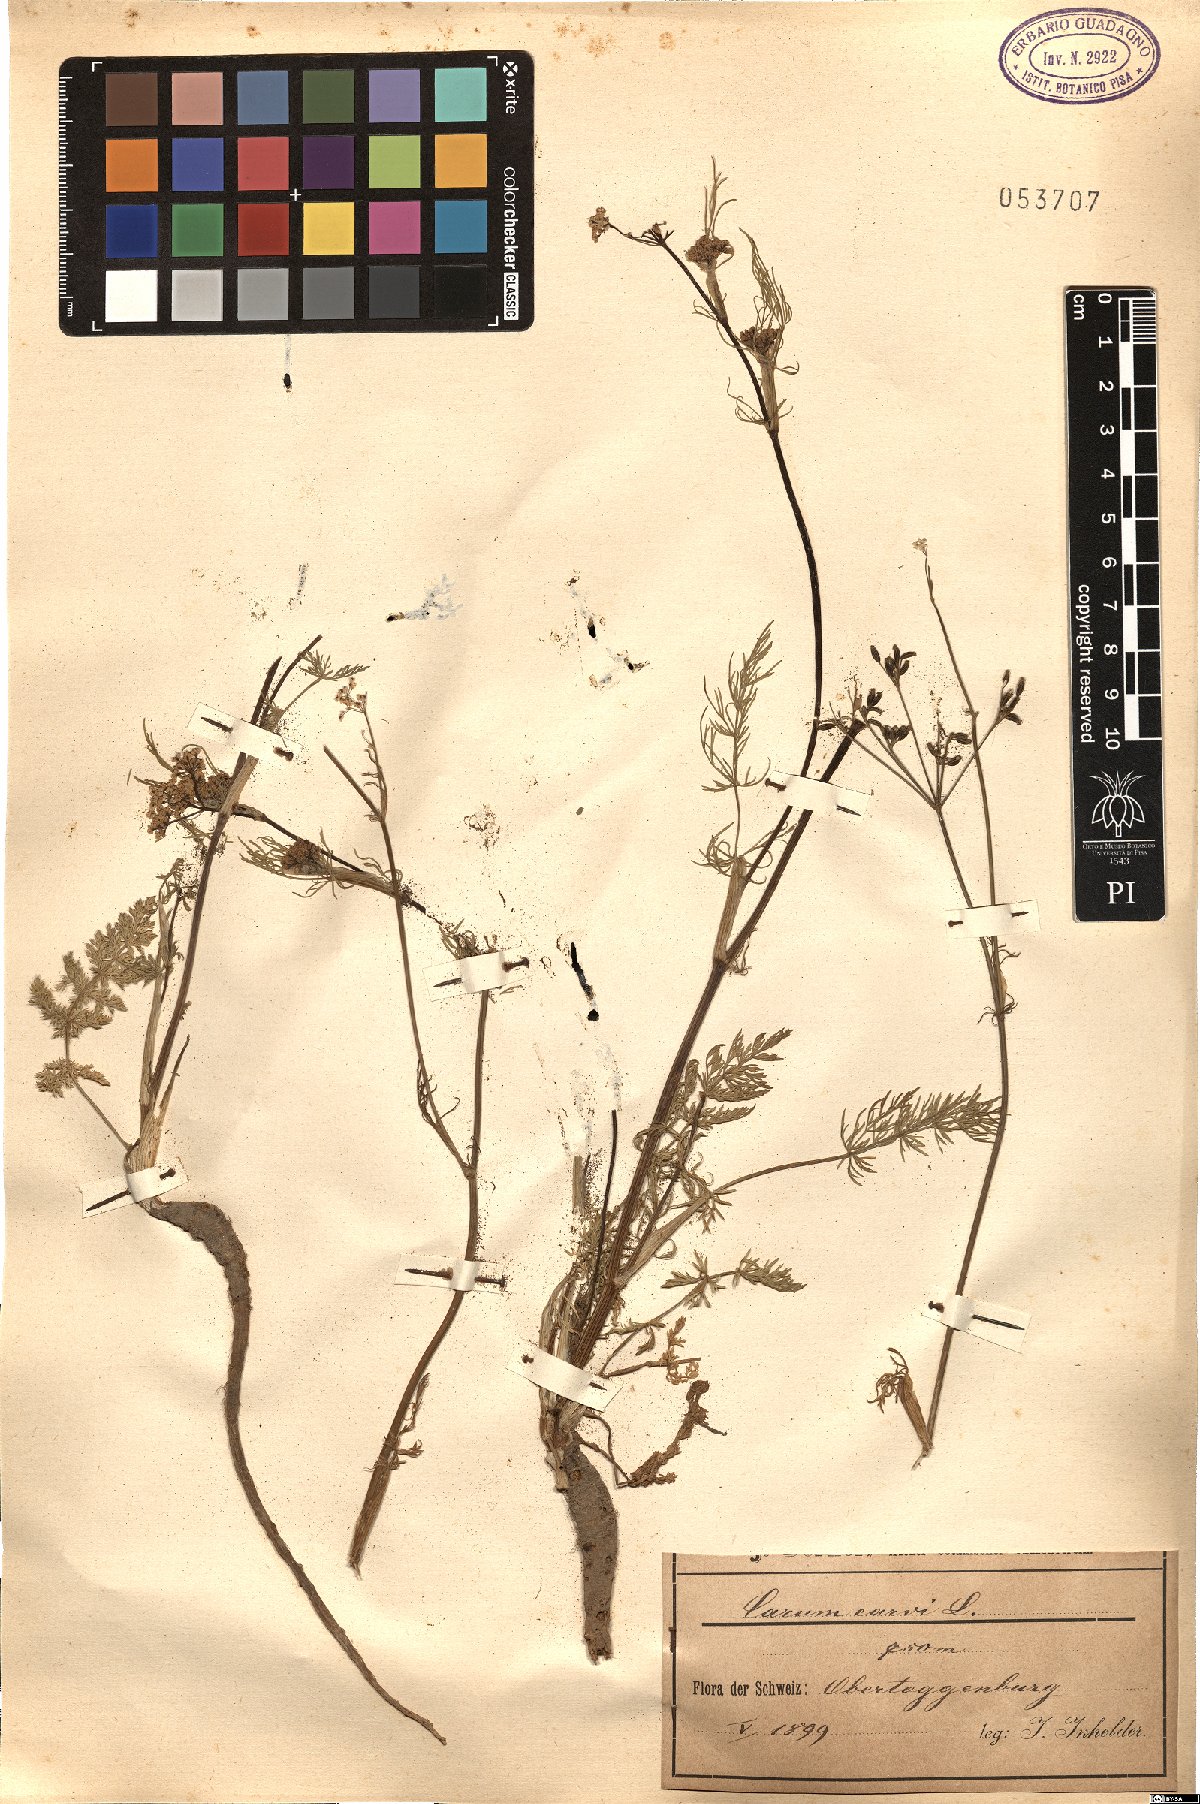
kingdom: Plantae
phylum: Tracheophyta
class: Magnoliopsida
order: Apiales
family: Apiaceae
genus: Carum
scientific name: Carum carvi
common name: Caraway
